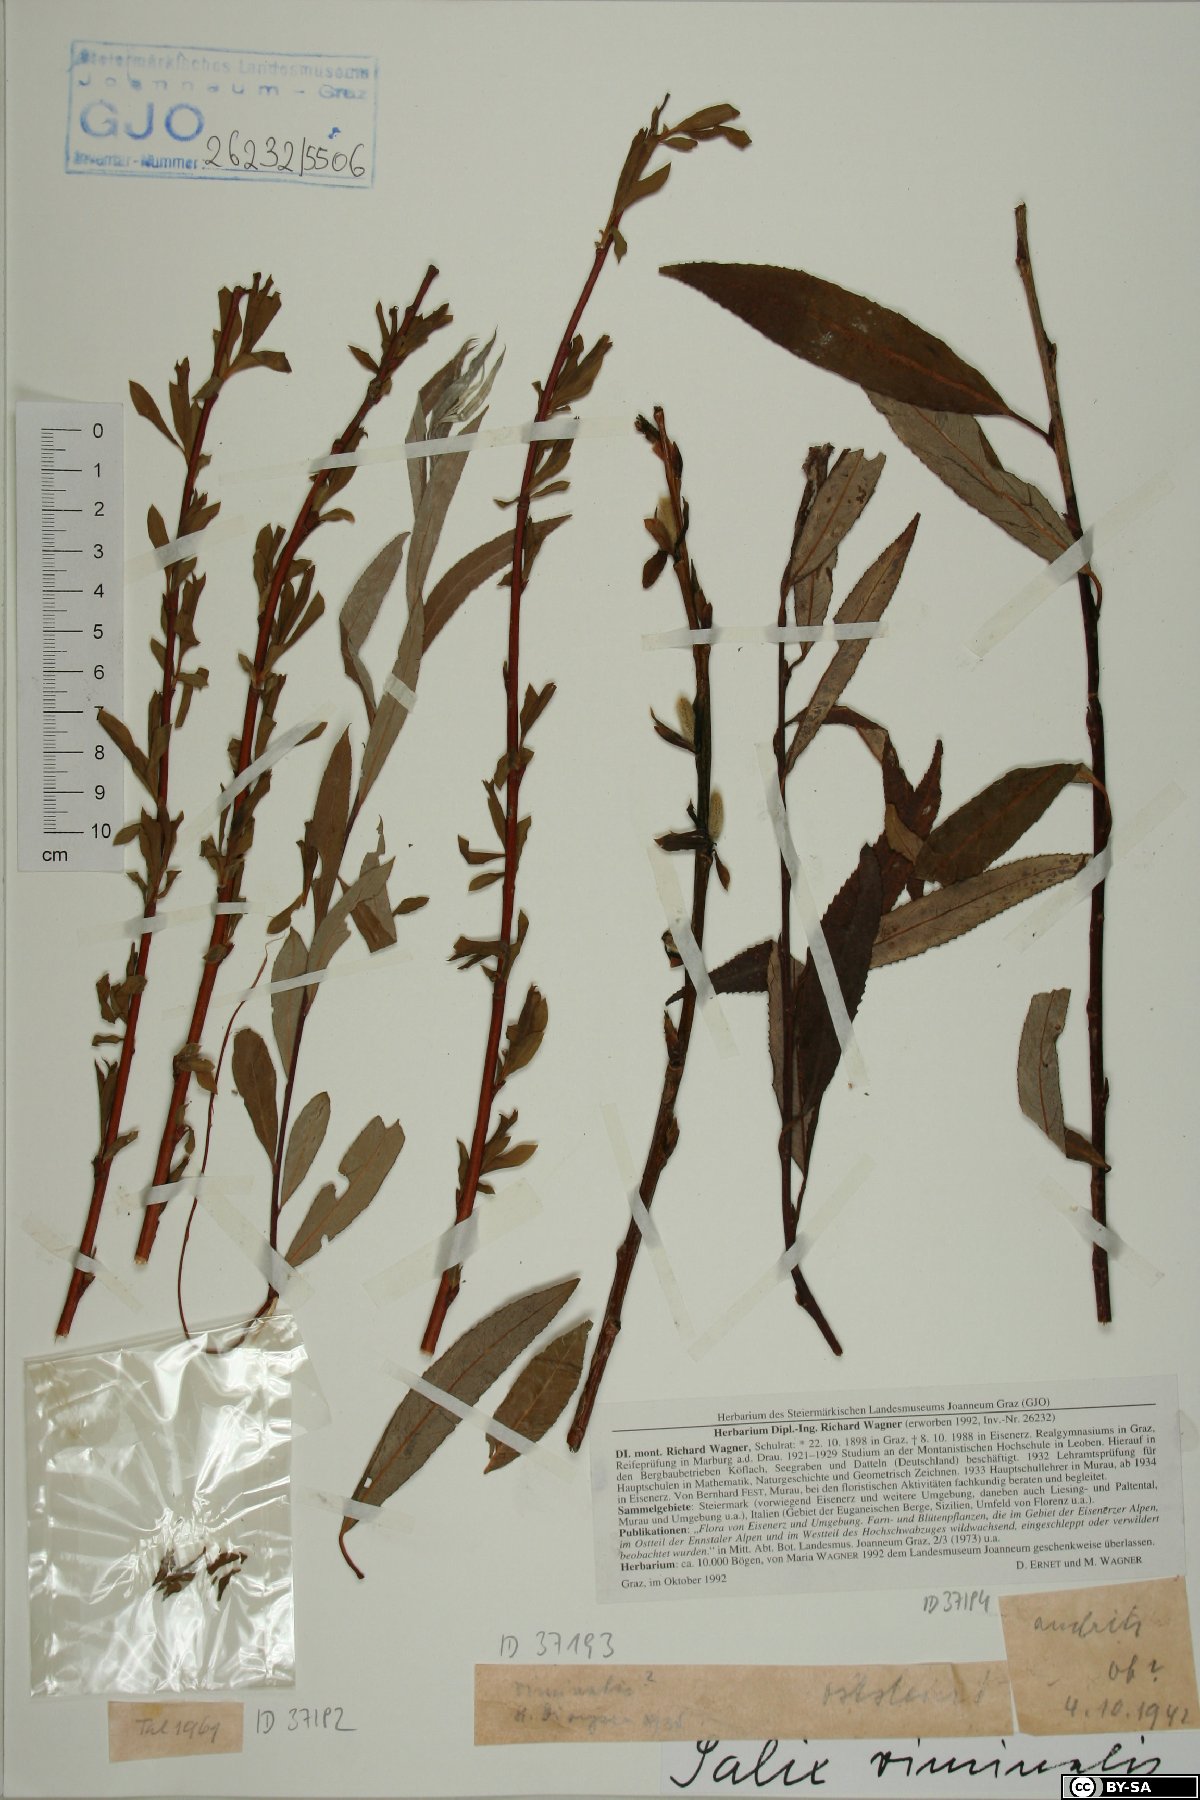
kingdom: Plantae
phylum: Tracheophyta
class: Magnoliopsida
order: Malpighiales
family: Salicaceae
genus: Salix
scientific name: Salix viminalis
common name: Osier
